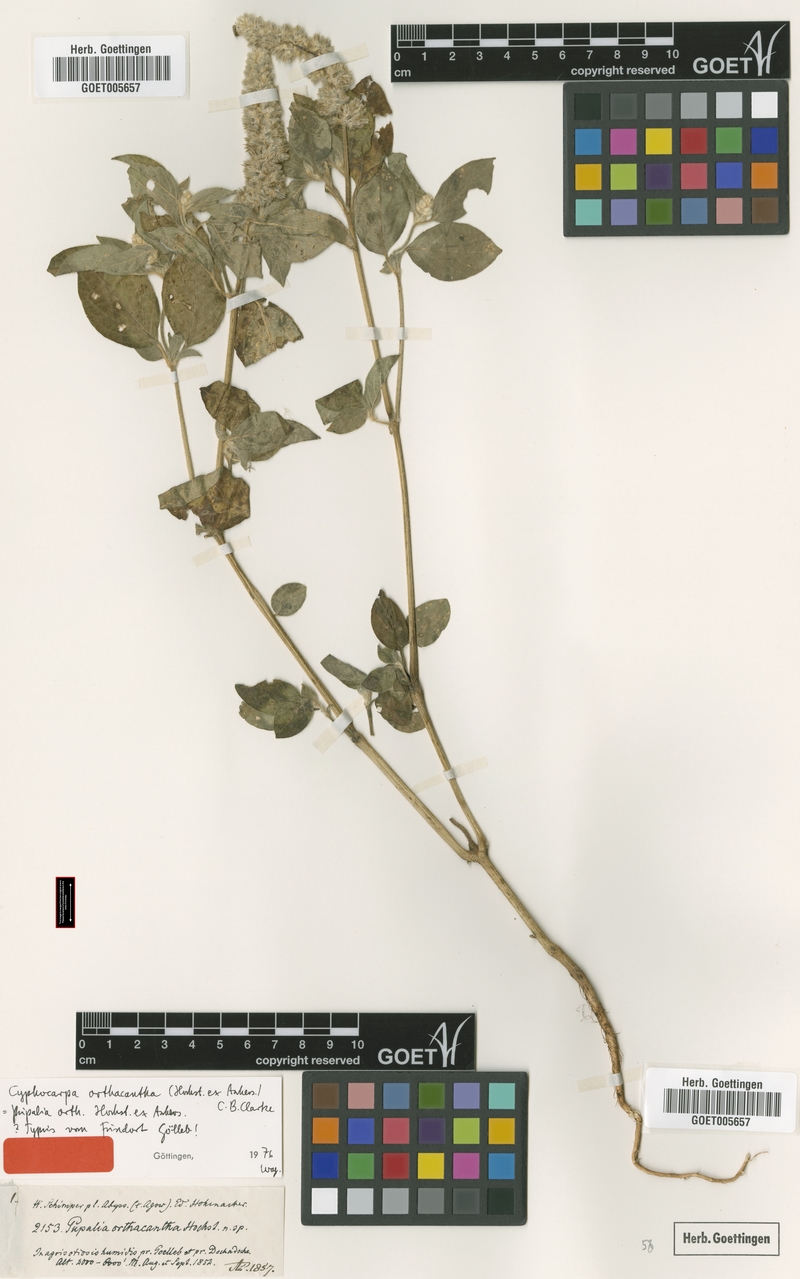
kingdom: Plantae
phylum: Tracheophyta
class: Magnoliopsida
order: Caryophyllales
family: Amaranthaceae
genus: Cyathula
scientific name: Cyathula orthacantha
